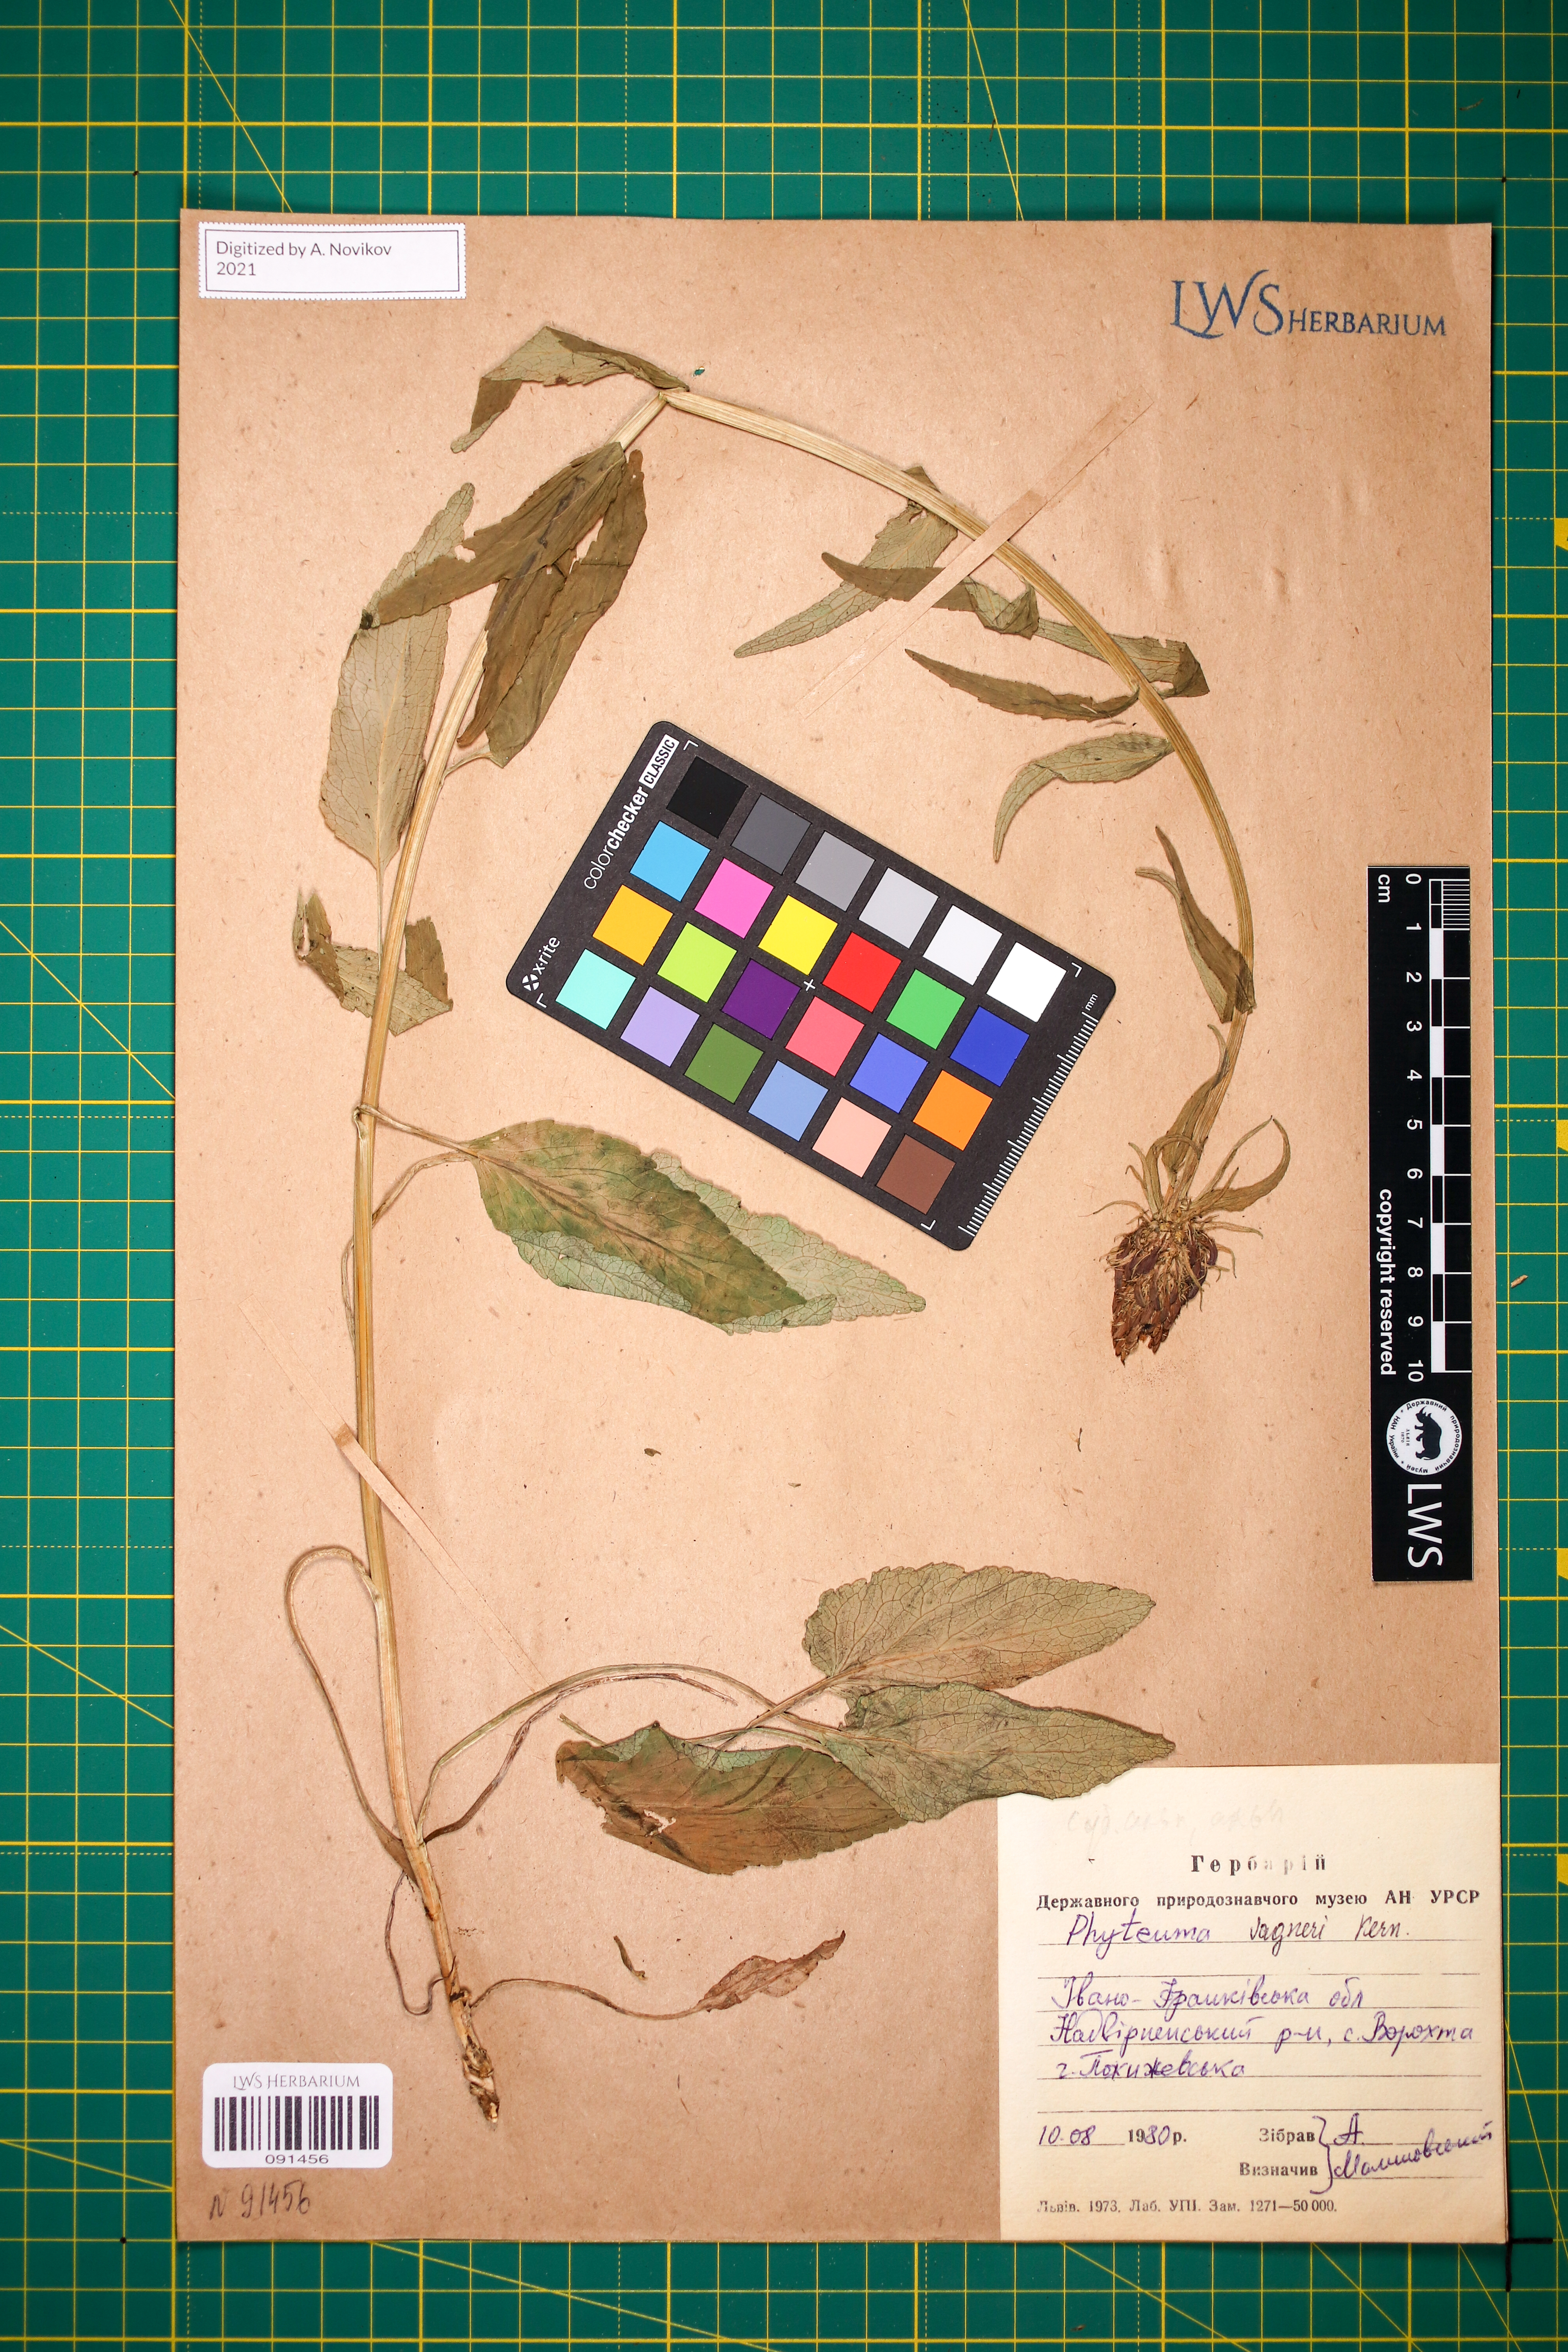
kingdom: Plantae
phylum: Tracheophyta
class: Magnoliopsida
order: Asterales
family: Campanulaceae
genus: Phyteuma
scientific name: Phyteuma vagneri
